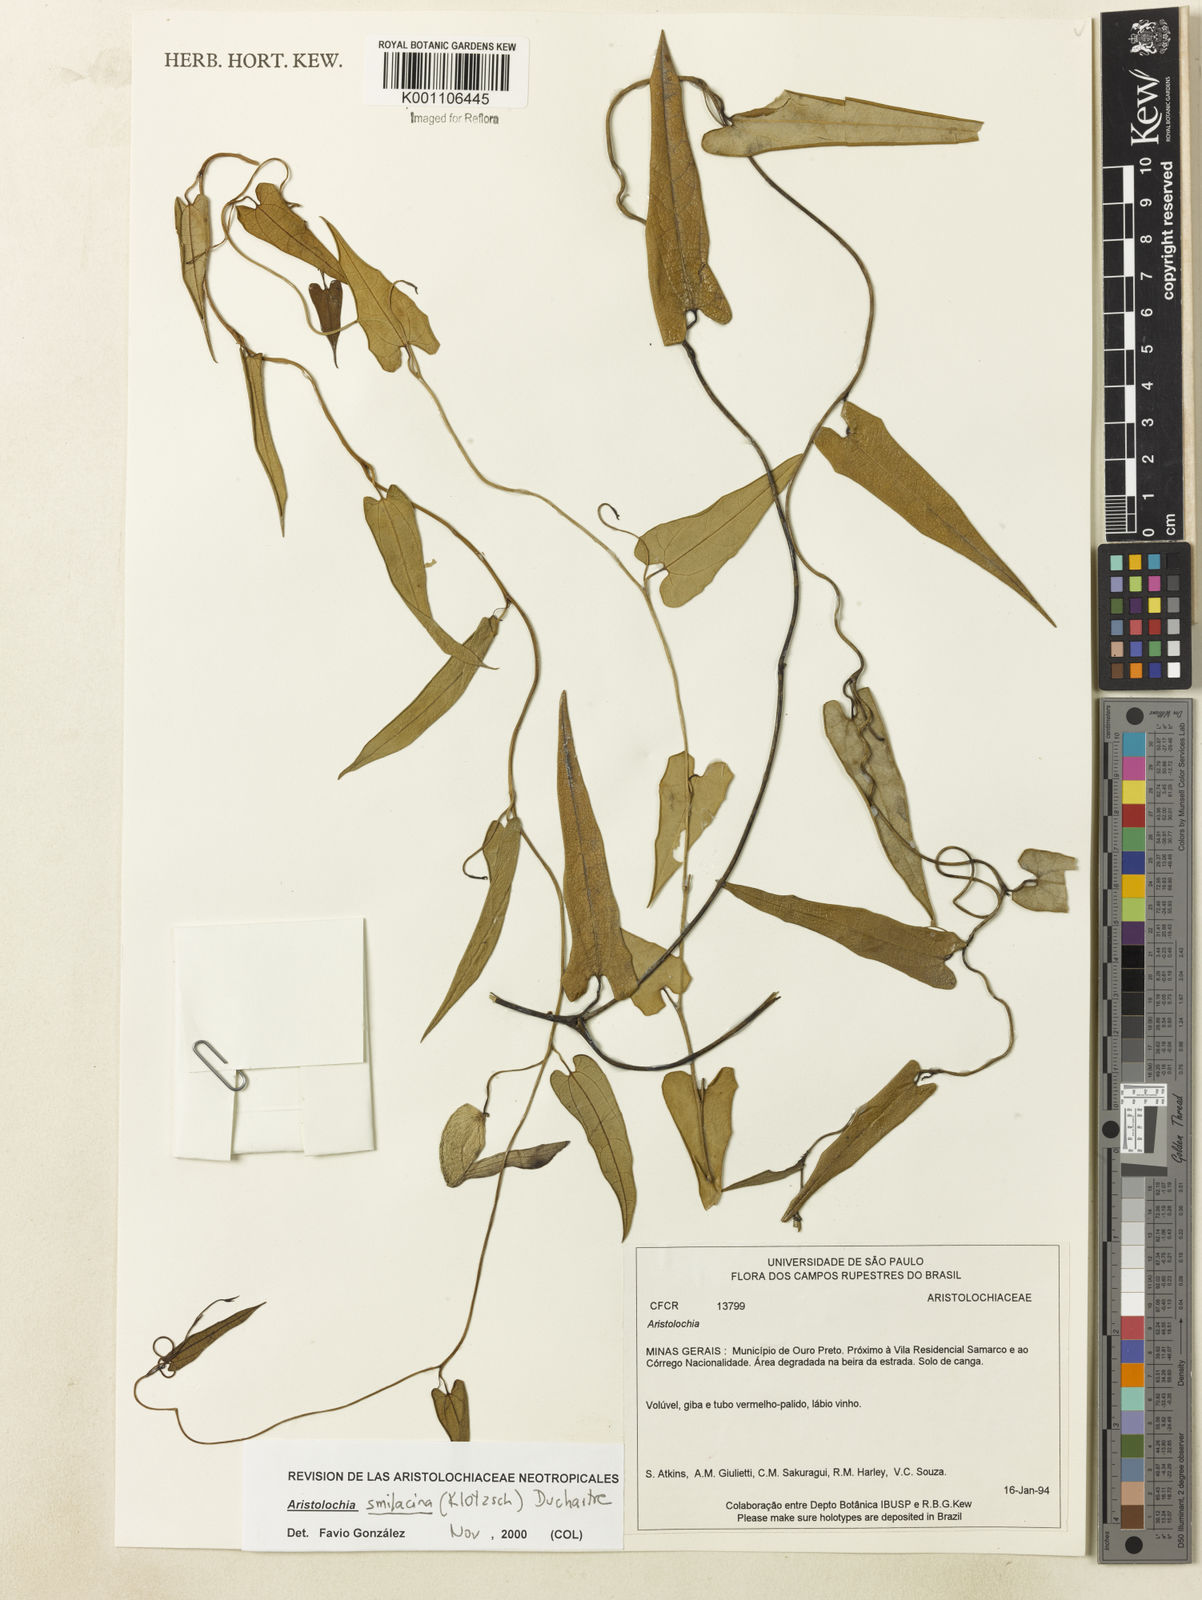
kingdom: Plantae
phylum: Tracheophyta
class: Magnoliopsida
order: Piperales
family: Aristolochiaceae
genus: Aristolochia
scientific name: Aristolochia smilacina
